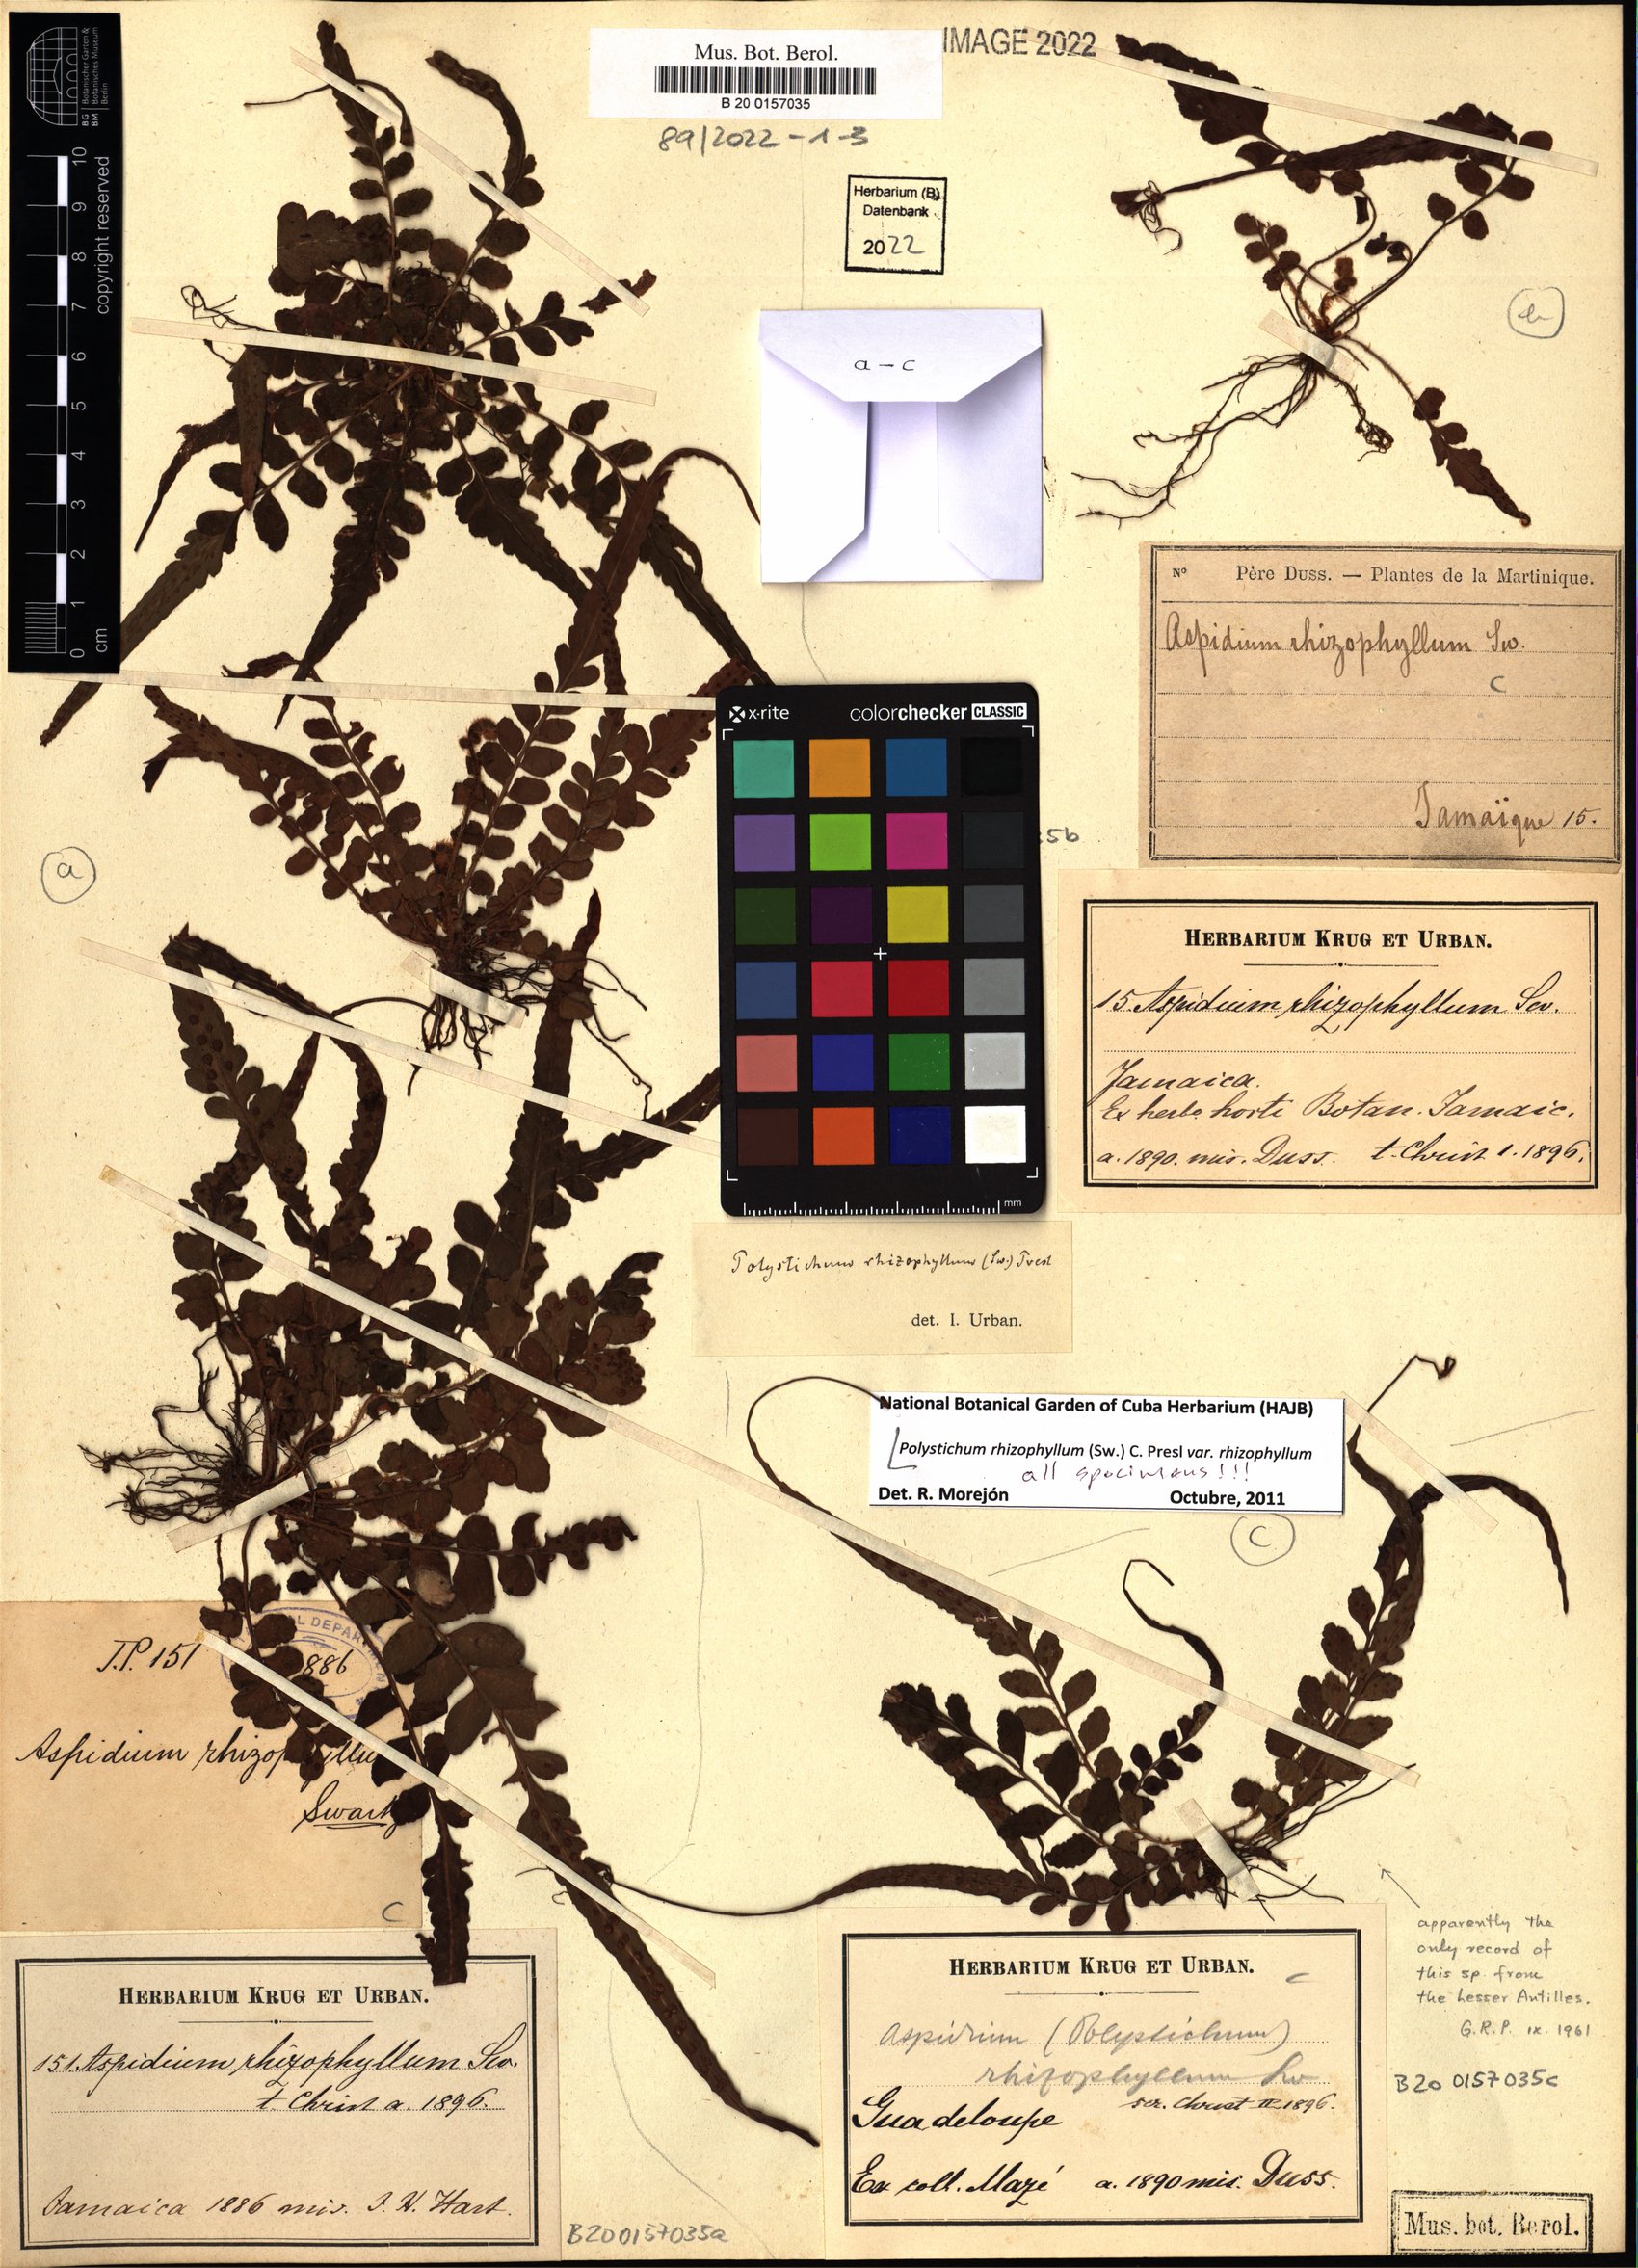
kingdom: Plantae
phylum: Tracheophyta
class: Polypodiopsida
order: Polypodiales
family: Dryopteridaceae
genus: Polystichum
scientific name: Polystichum rhizophyllum
